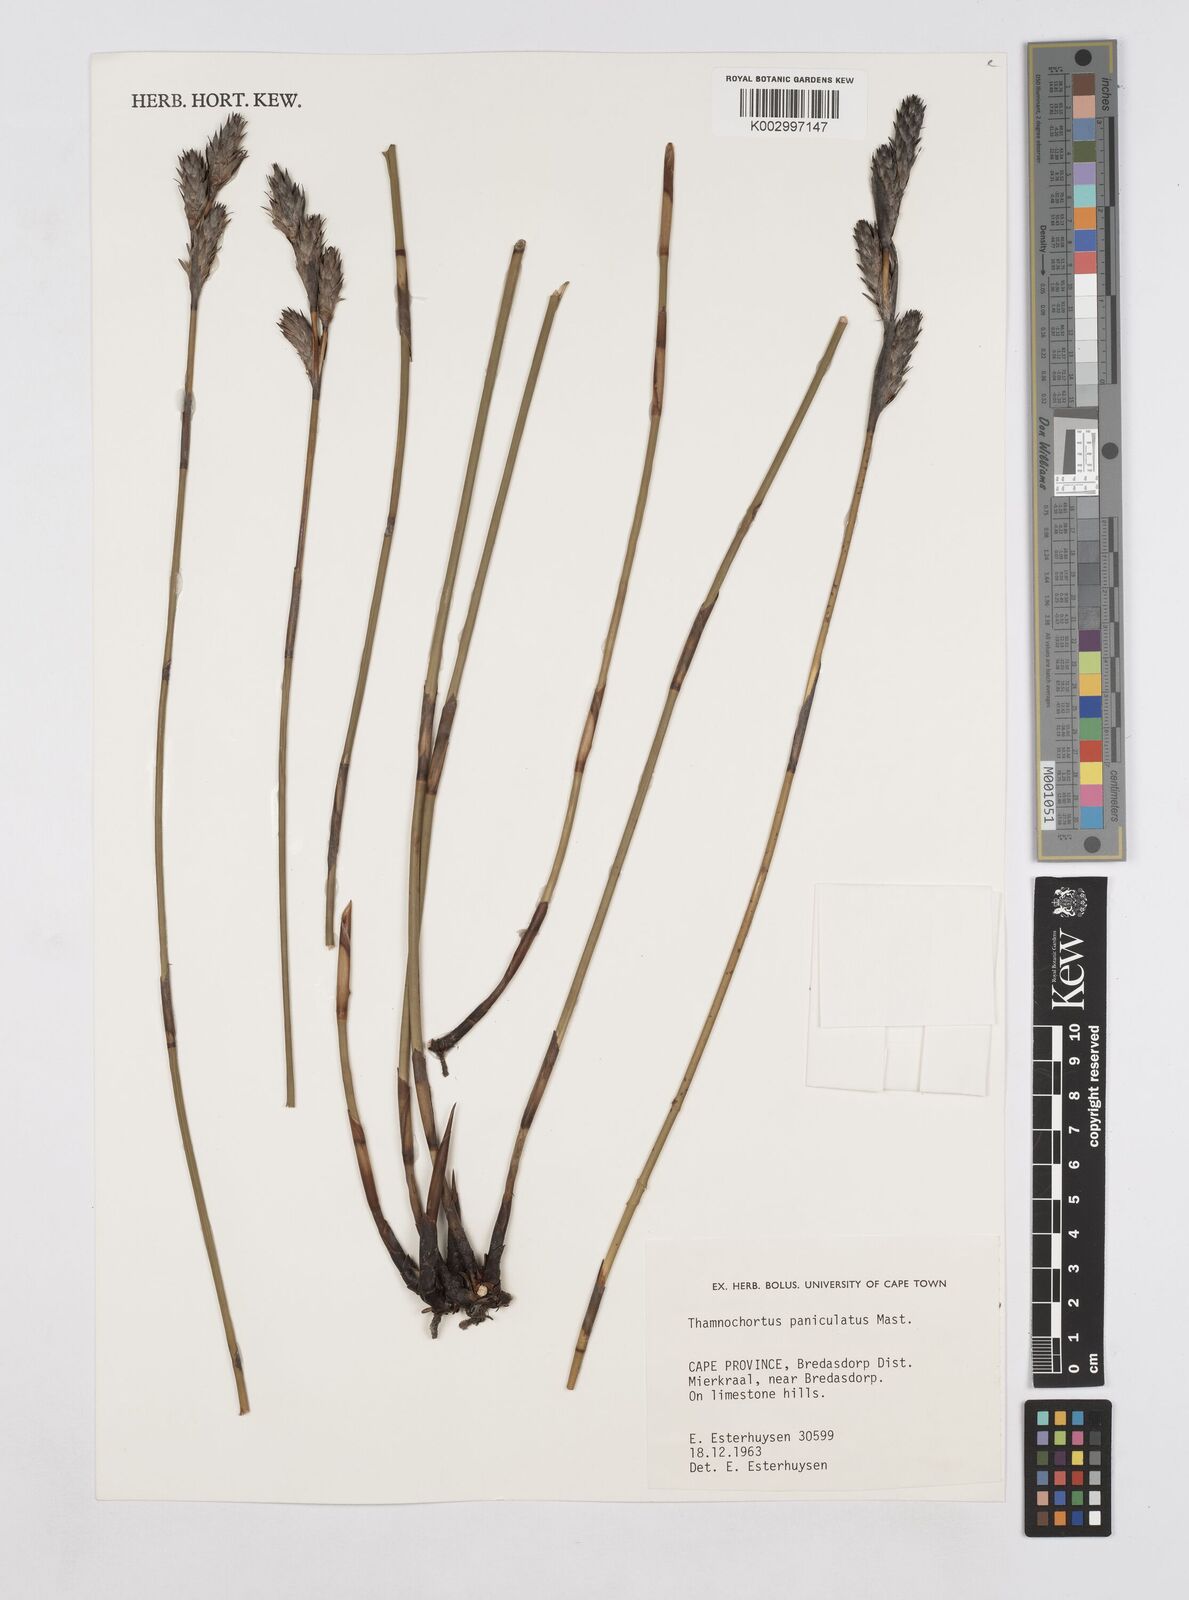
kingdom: Plantae
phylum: Tracheophyta
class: Liliopsida
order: Poales
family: Restionaceae
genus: Thamnochortus
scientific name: Thamnochortus paniculatus
